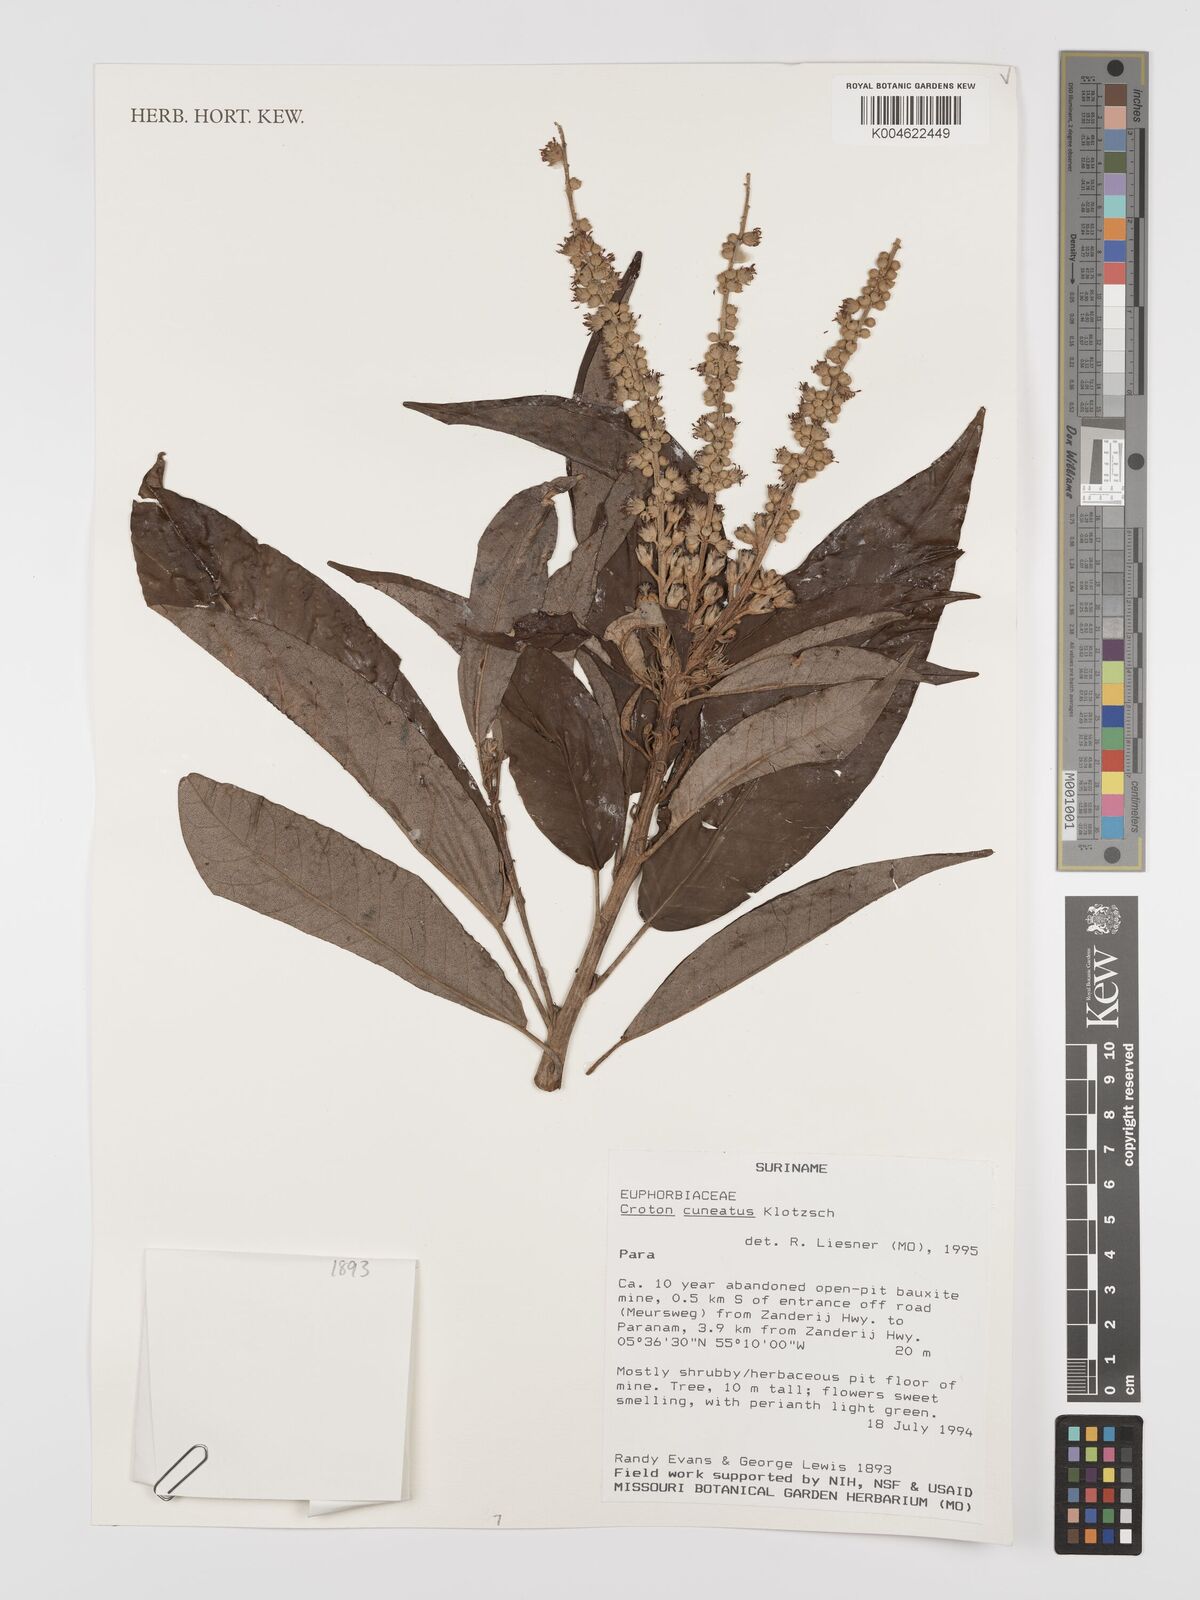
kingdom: Plantae
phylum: Tracheophyta
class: Magnoliopsida
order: Malpighiales
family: Euphorbiaceae
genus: Croton
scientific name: Croton
